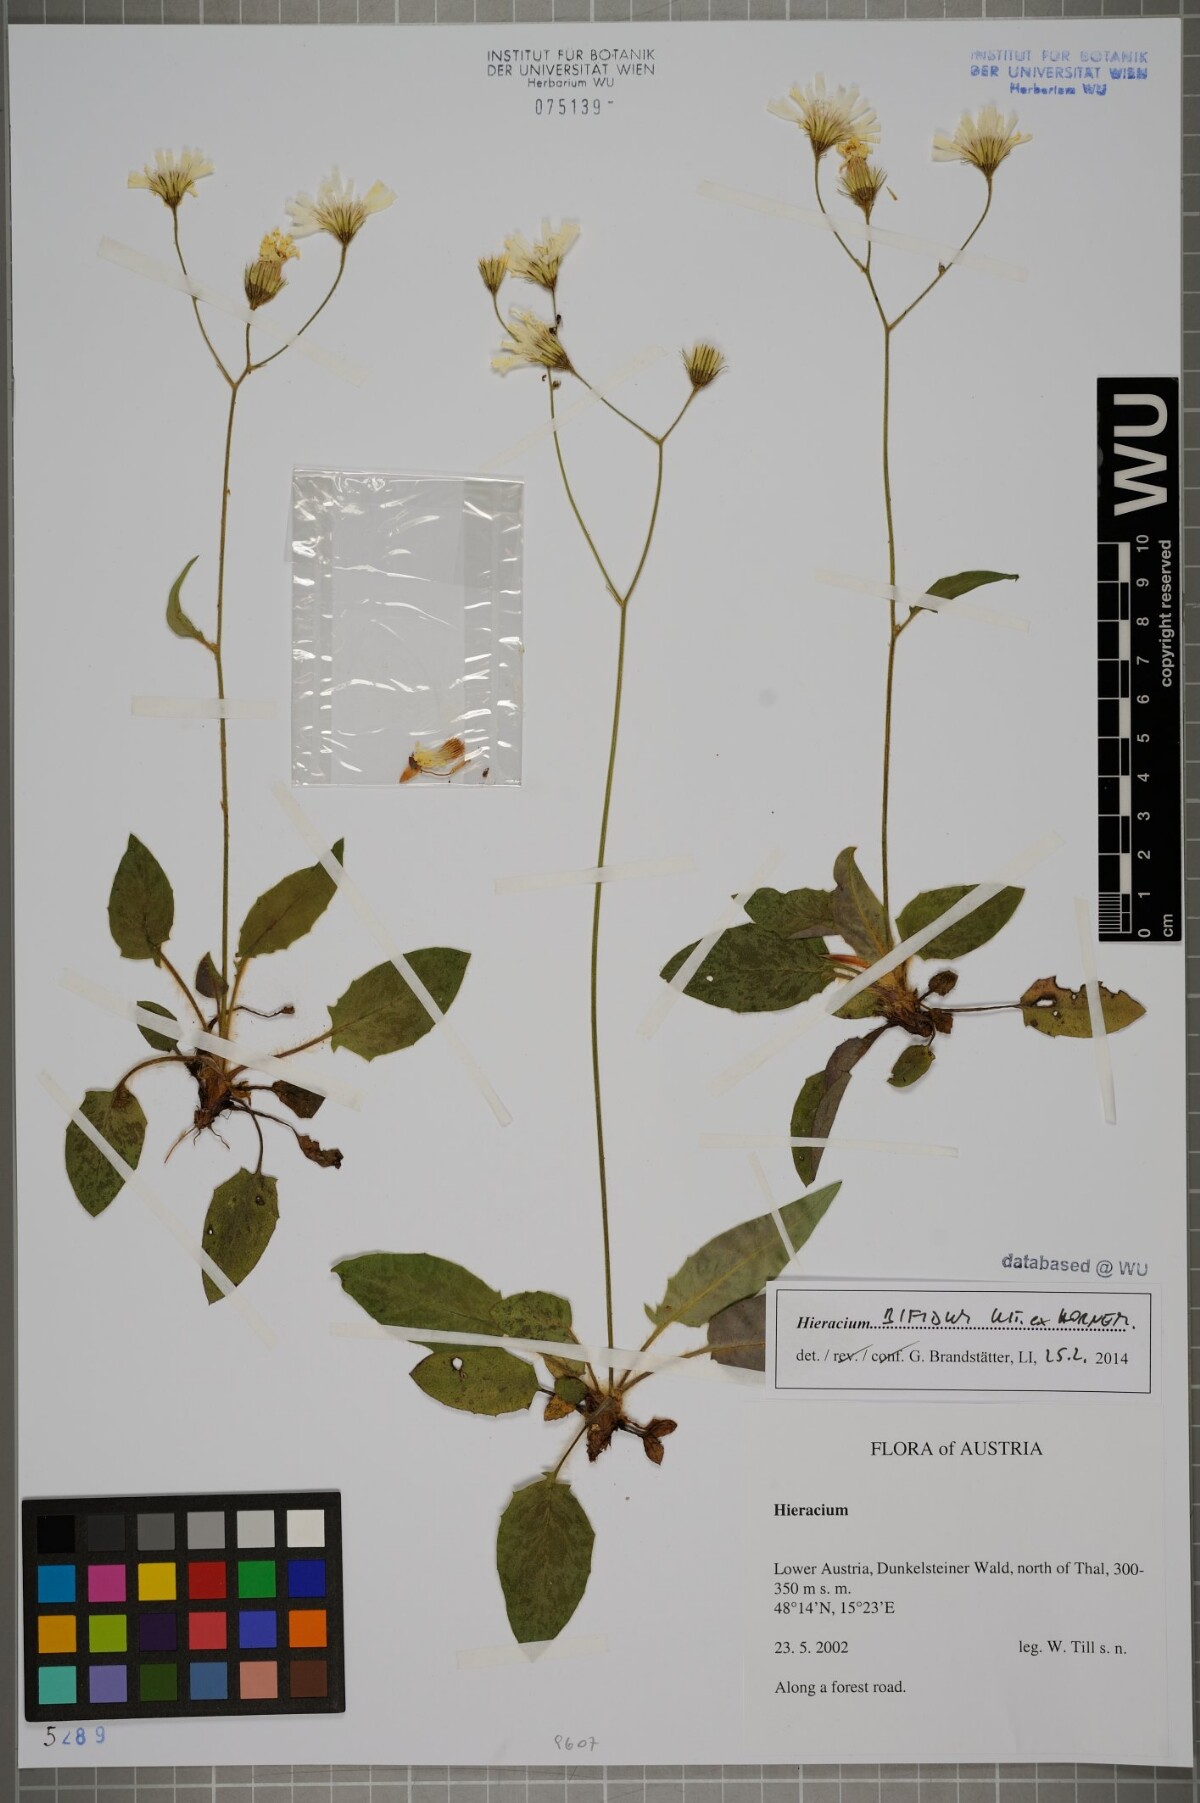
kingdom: Plantae
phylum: Tracheophyta
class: Magnoliopsida
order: Asterales
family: Asteraceae
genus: Hieracium
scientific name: Hieracium bifidum
